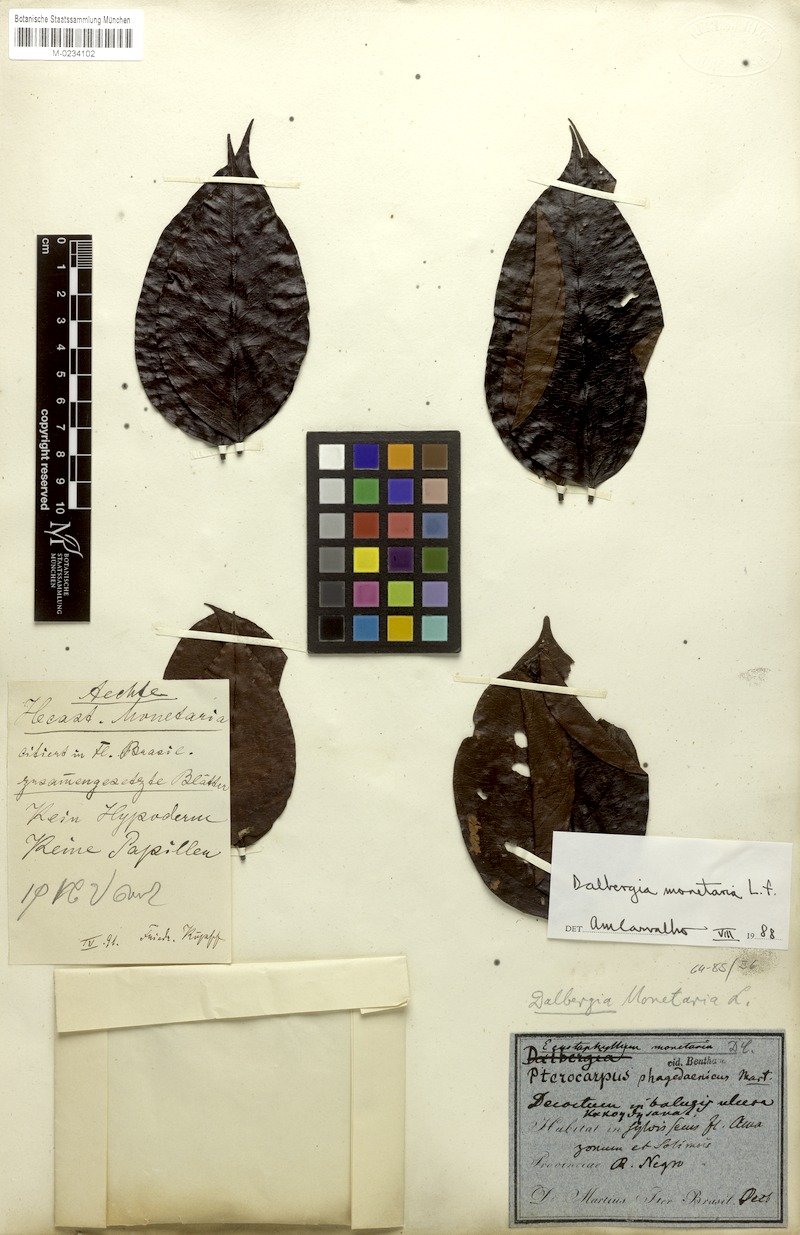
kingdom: Plantae
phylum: Tracheophyta
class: Magnoliopsida
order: Fabales
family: Fabaceae
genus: Dalbergia
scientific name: Dalbergia ovalis
